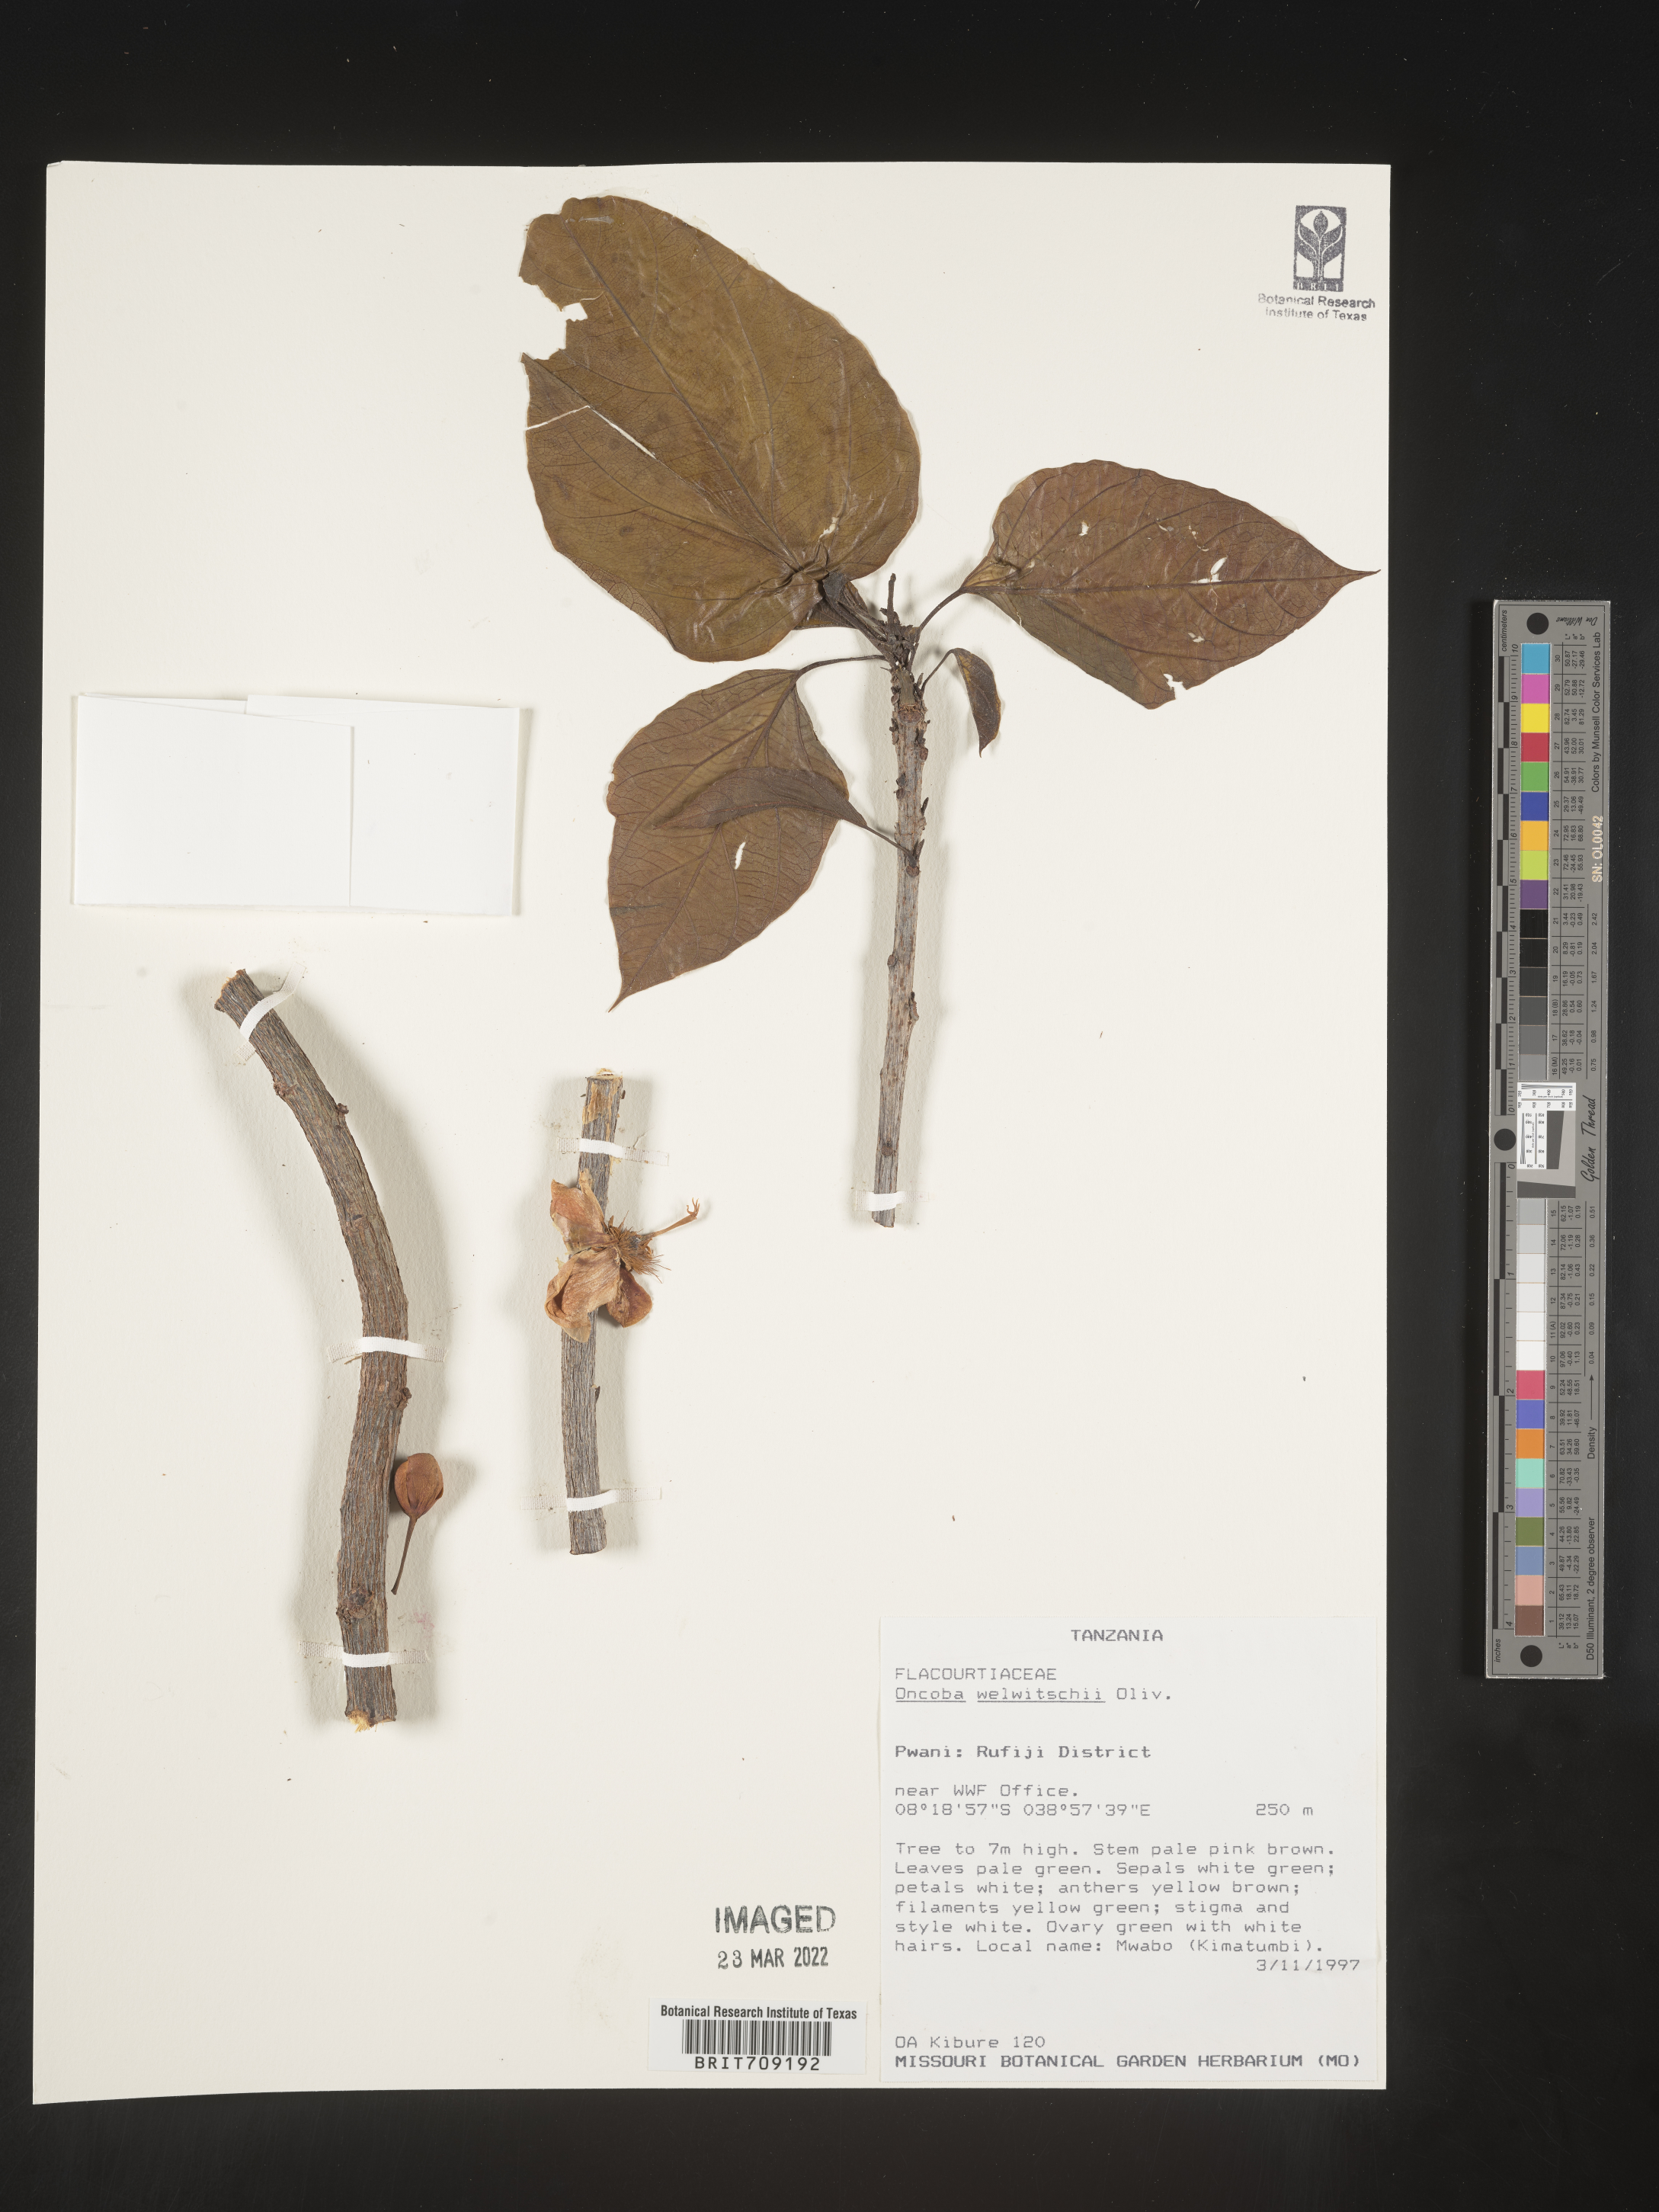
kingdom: Plantae
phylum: Tracheophyta
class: Magnoliopsida
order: Malpighiales
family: Salicaceae
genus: Oncoba
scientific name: Oncoba
